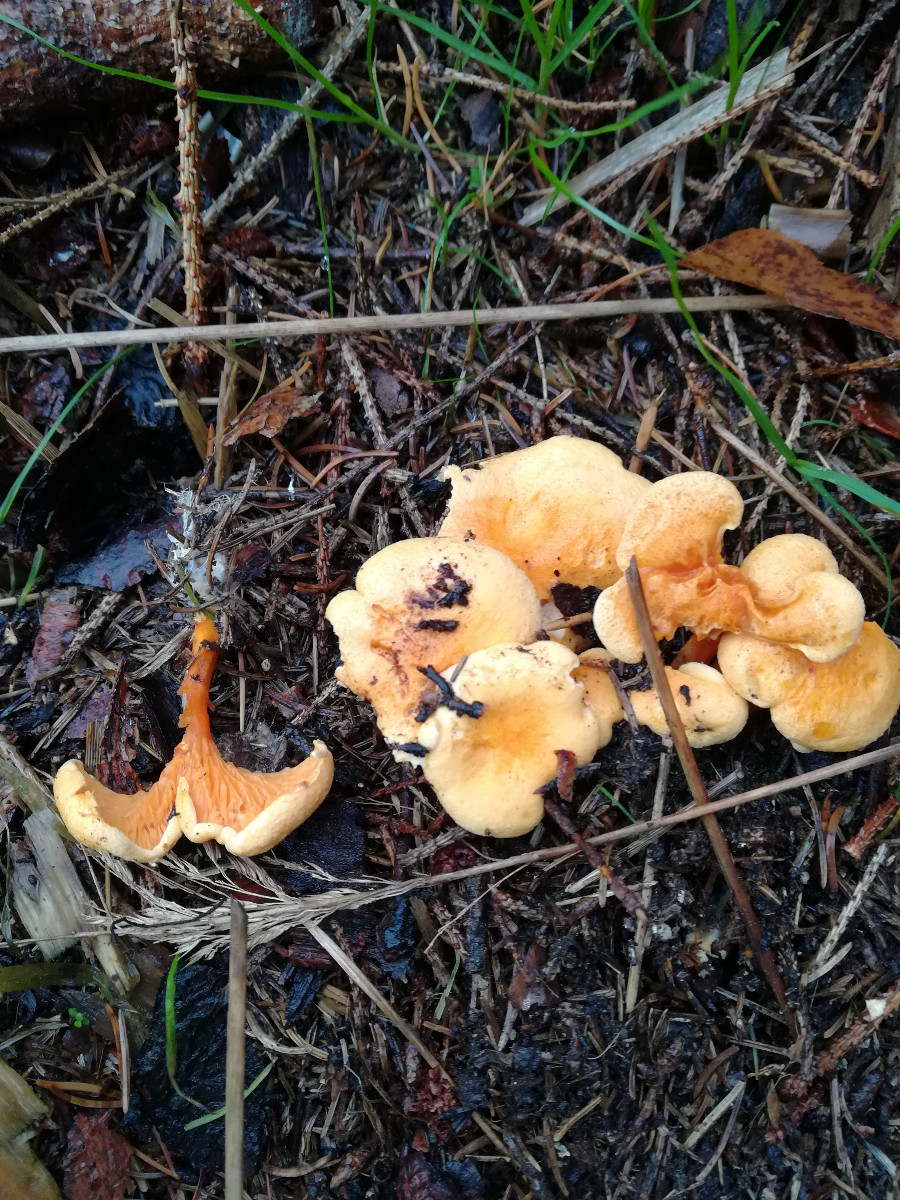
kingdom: Fungi
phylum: Basidiomycota
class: Agaricomycetes
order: Boletales
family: Hygrophoropsidaceae
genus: Hygrophoropsis
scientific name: Hygrophoropsis aurantiaca
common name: almindelig orangekantarel
